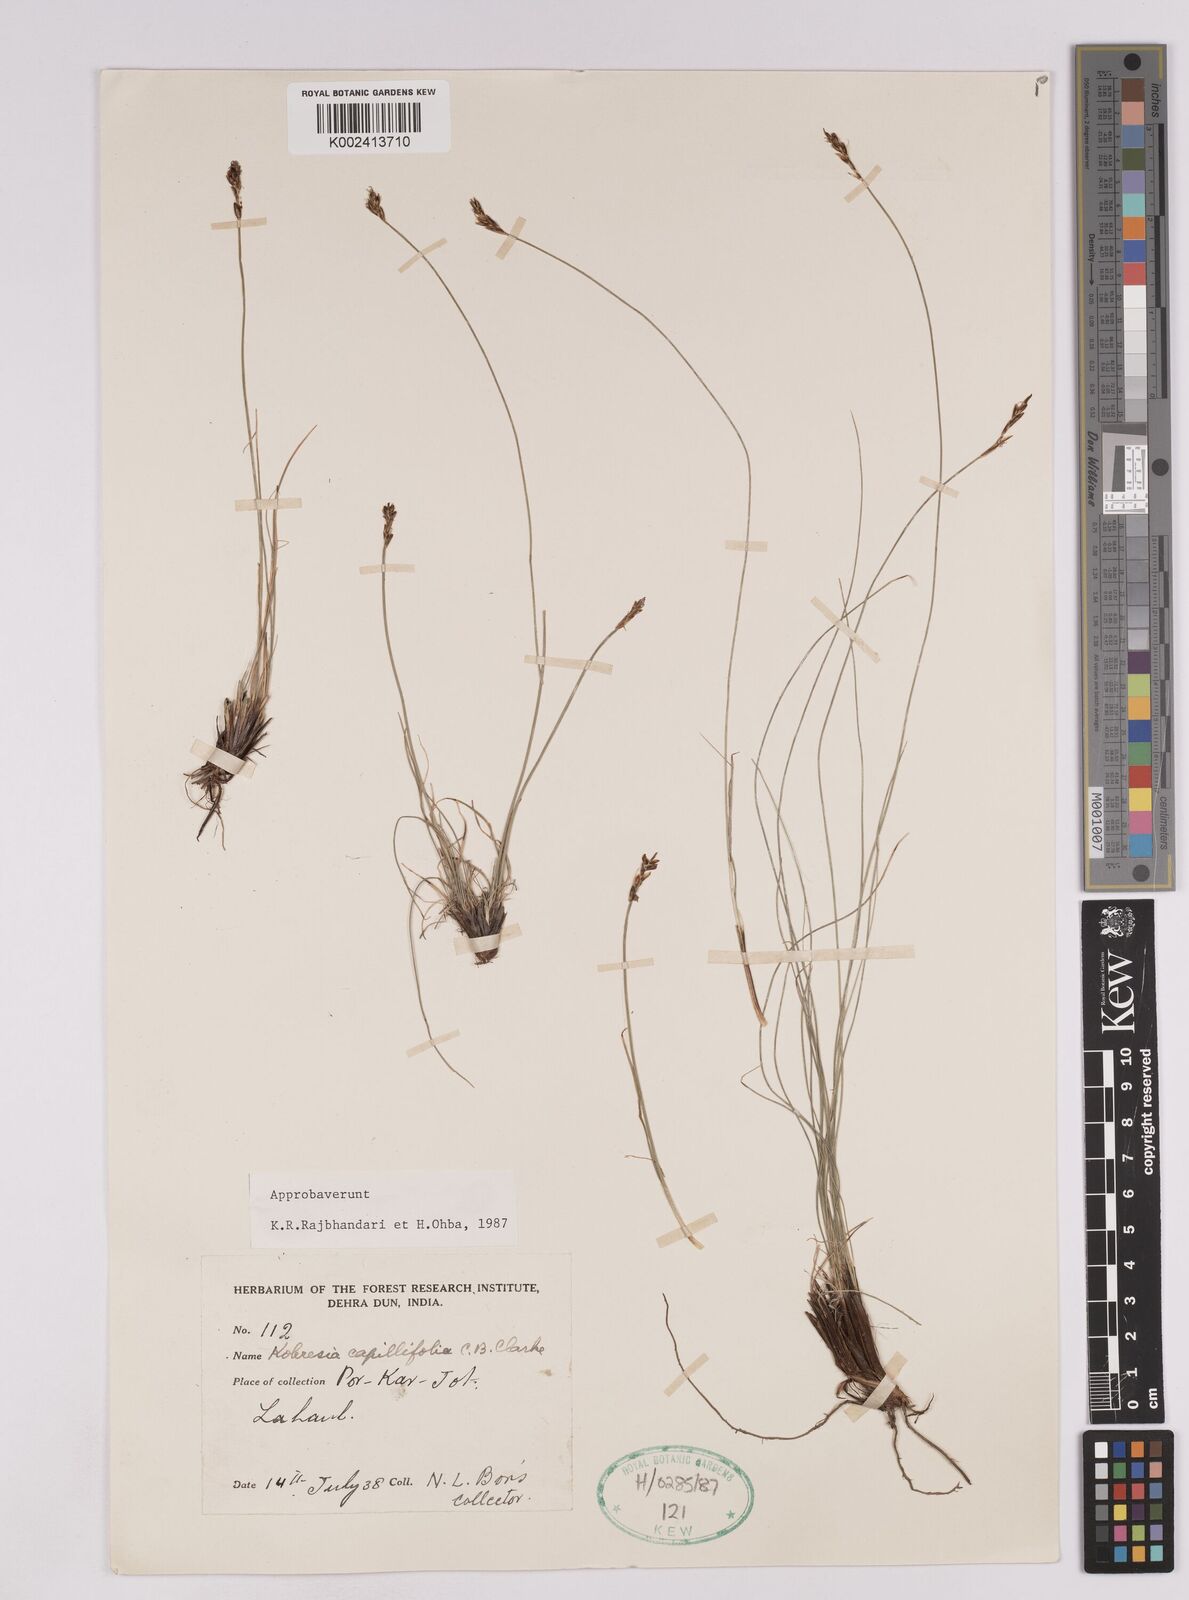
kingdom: Plantae
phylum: Tracheophyta
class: Liliopsida
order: Poales
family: Cyperaceae
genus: Carex
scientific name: Carex capillifolia
